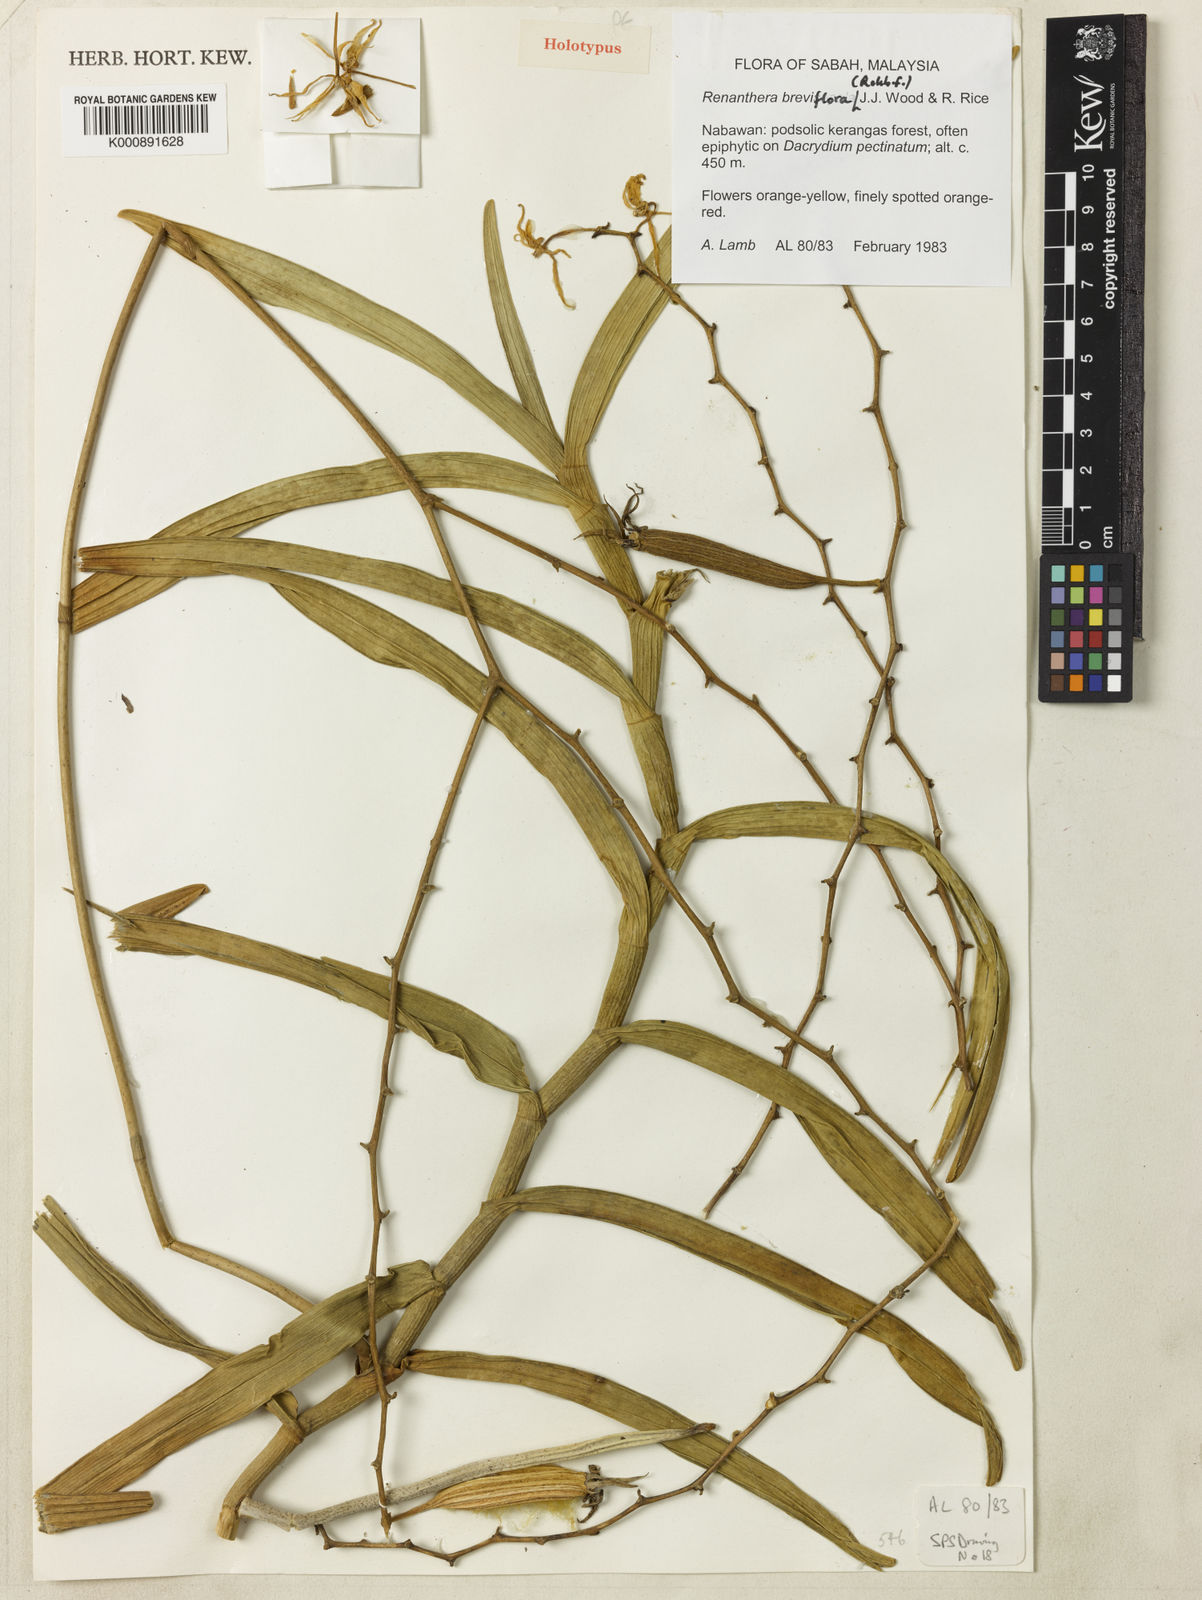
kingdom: Plantae
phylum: Tracheophyta
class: Liliopsida
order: Asparagales
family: Orchidaceae
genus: Renanthera
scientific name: Renanthera breviflora
